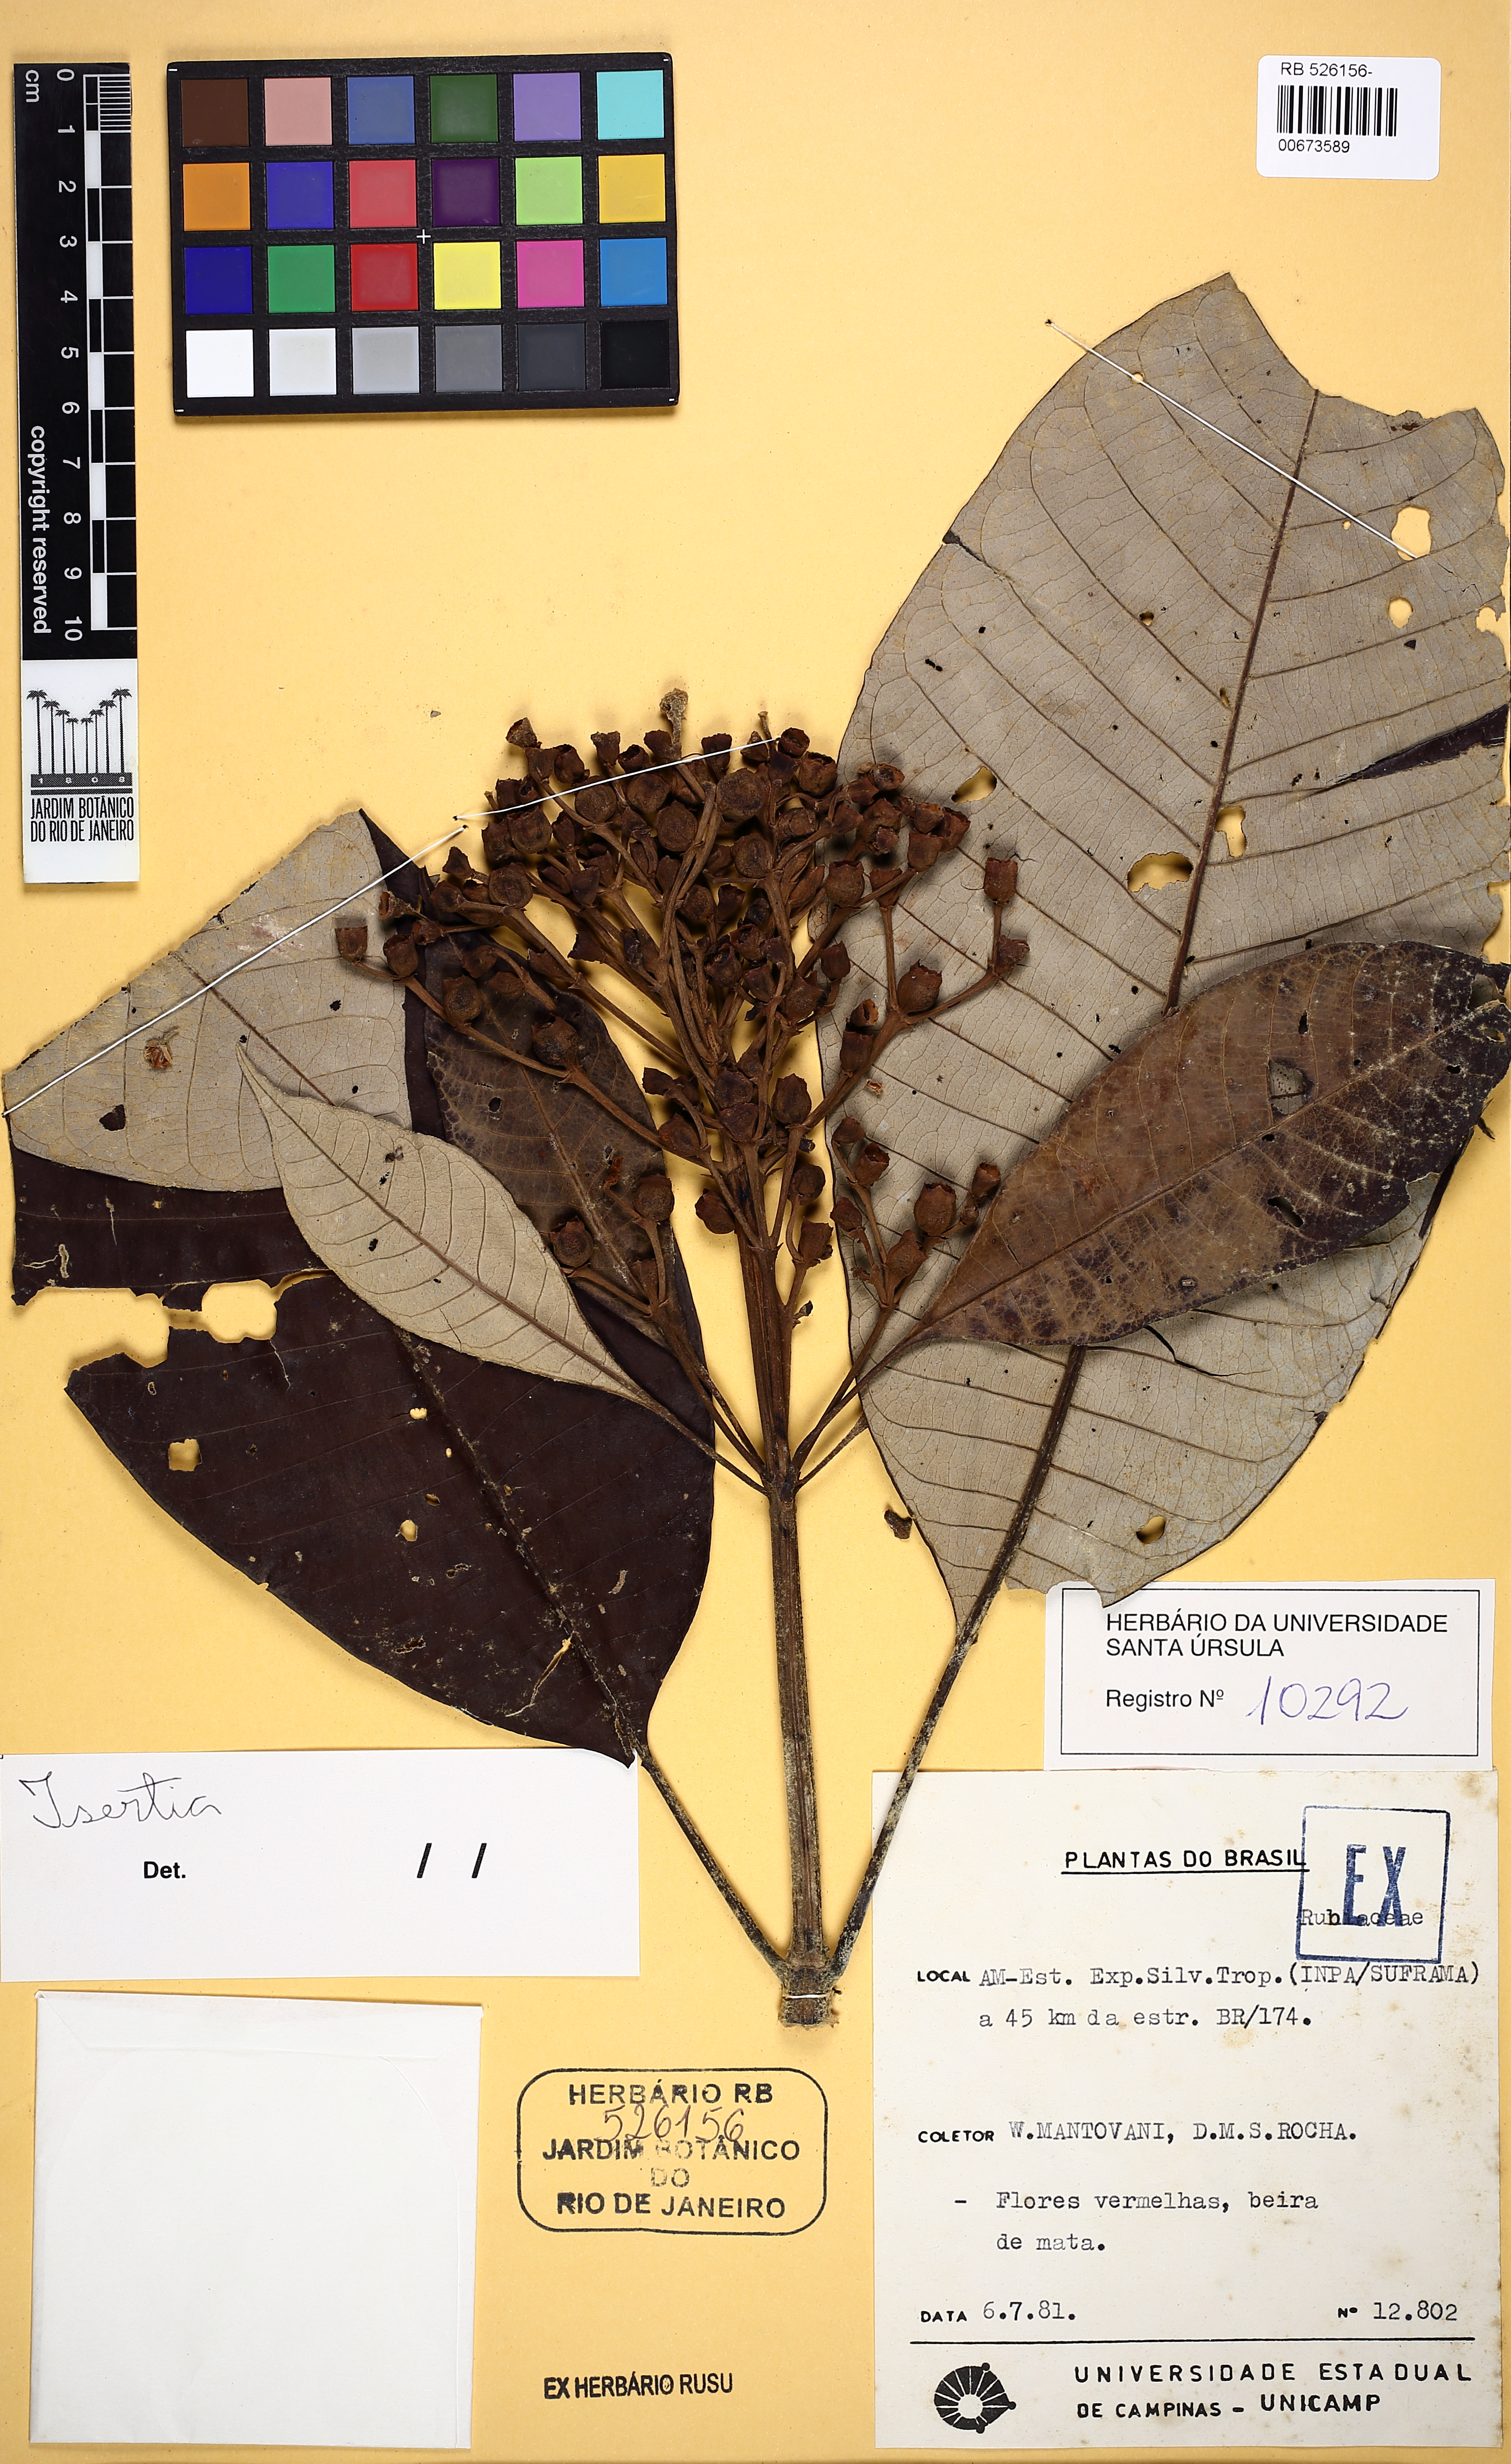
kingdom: Plantae
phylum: Tracheophyta
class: Magnoliopsida
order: Gentianales
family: Rubiaceae
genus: Isertia
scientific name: Isertia hypoleuca
